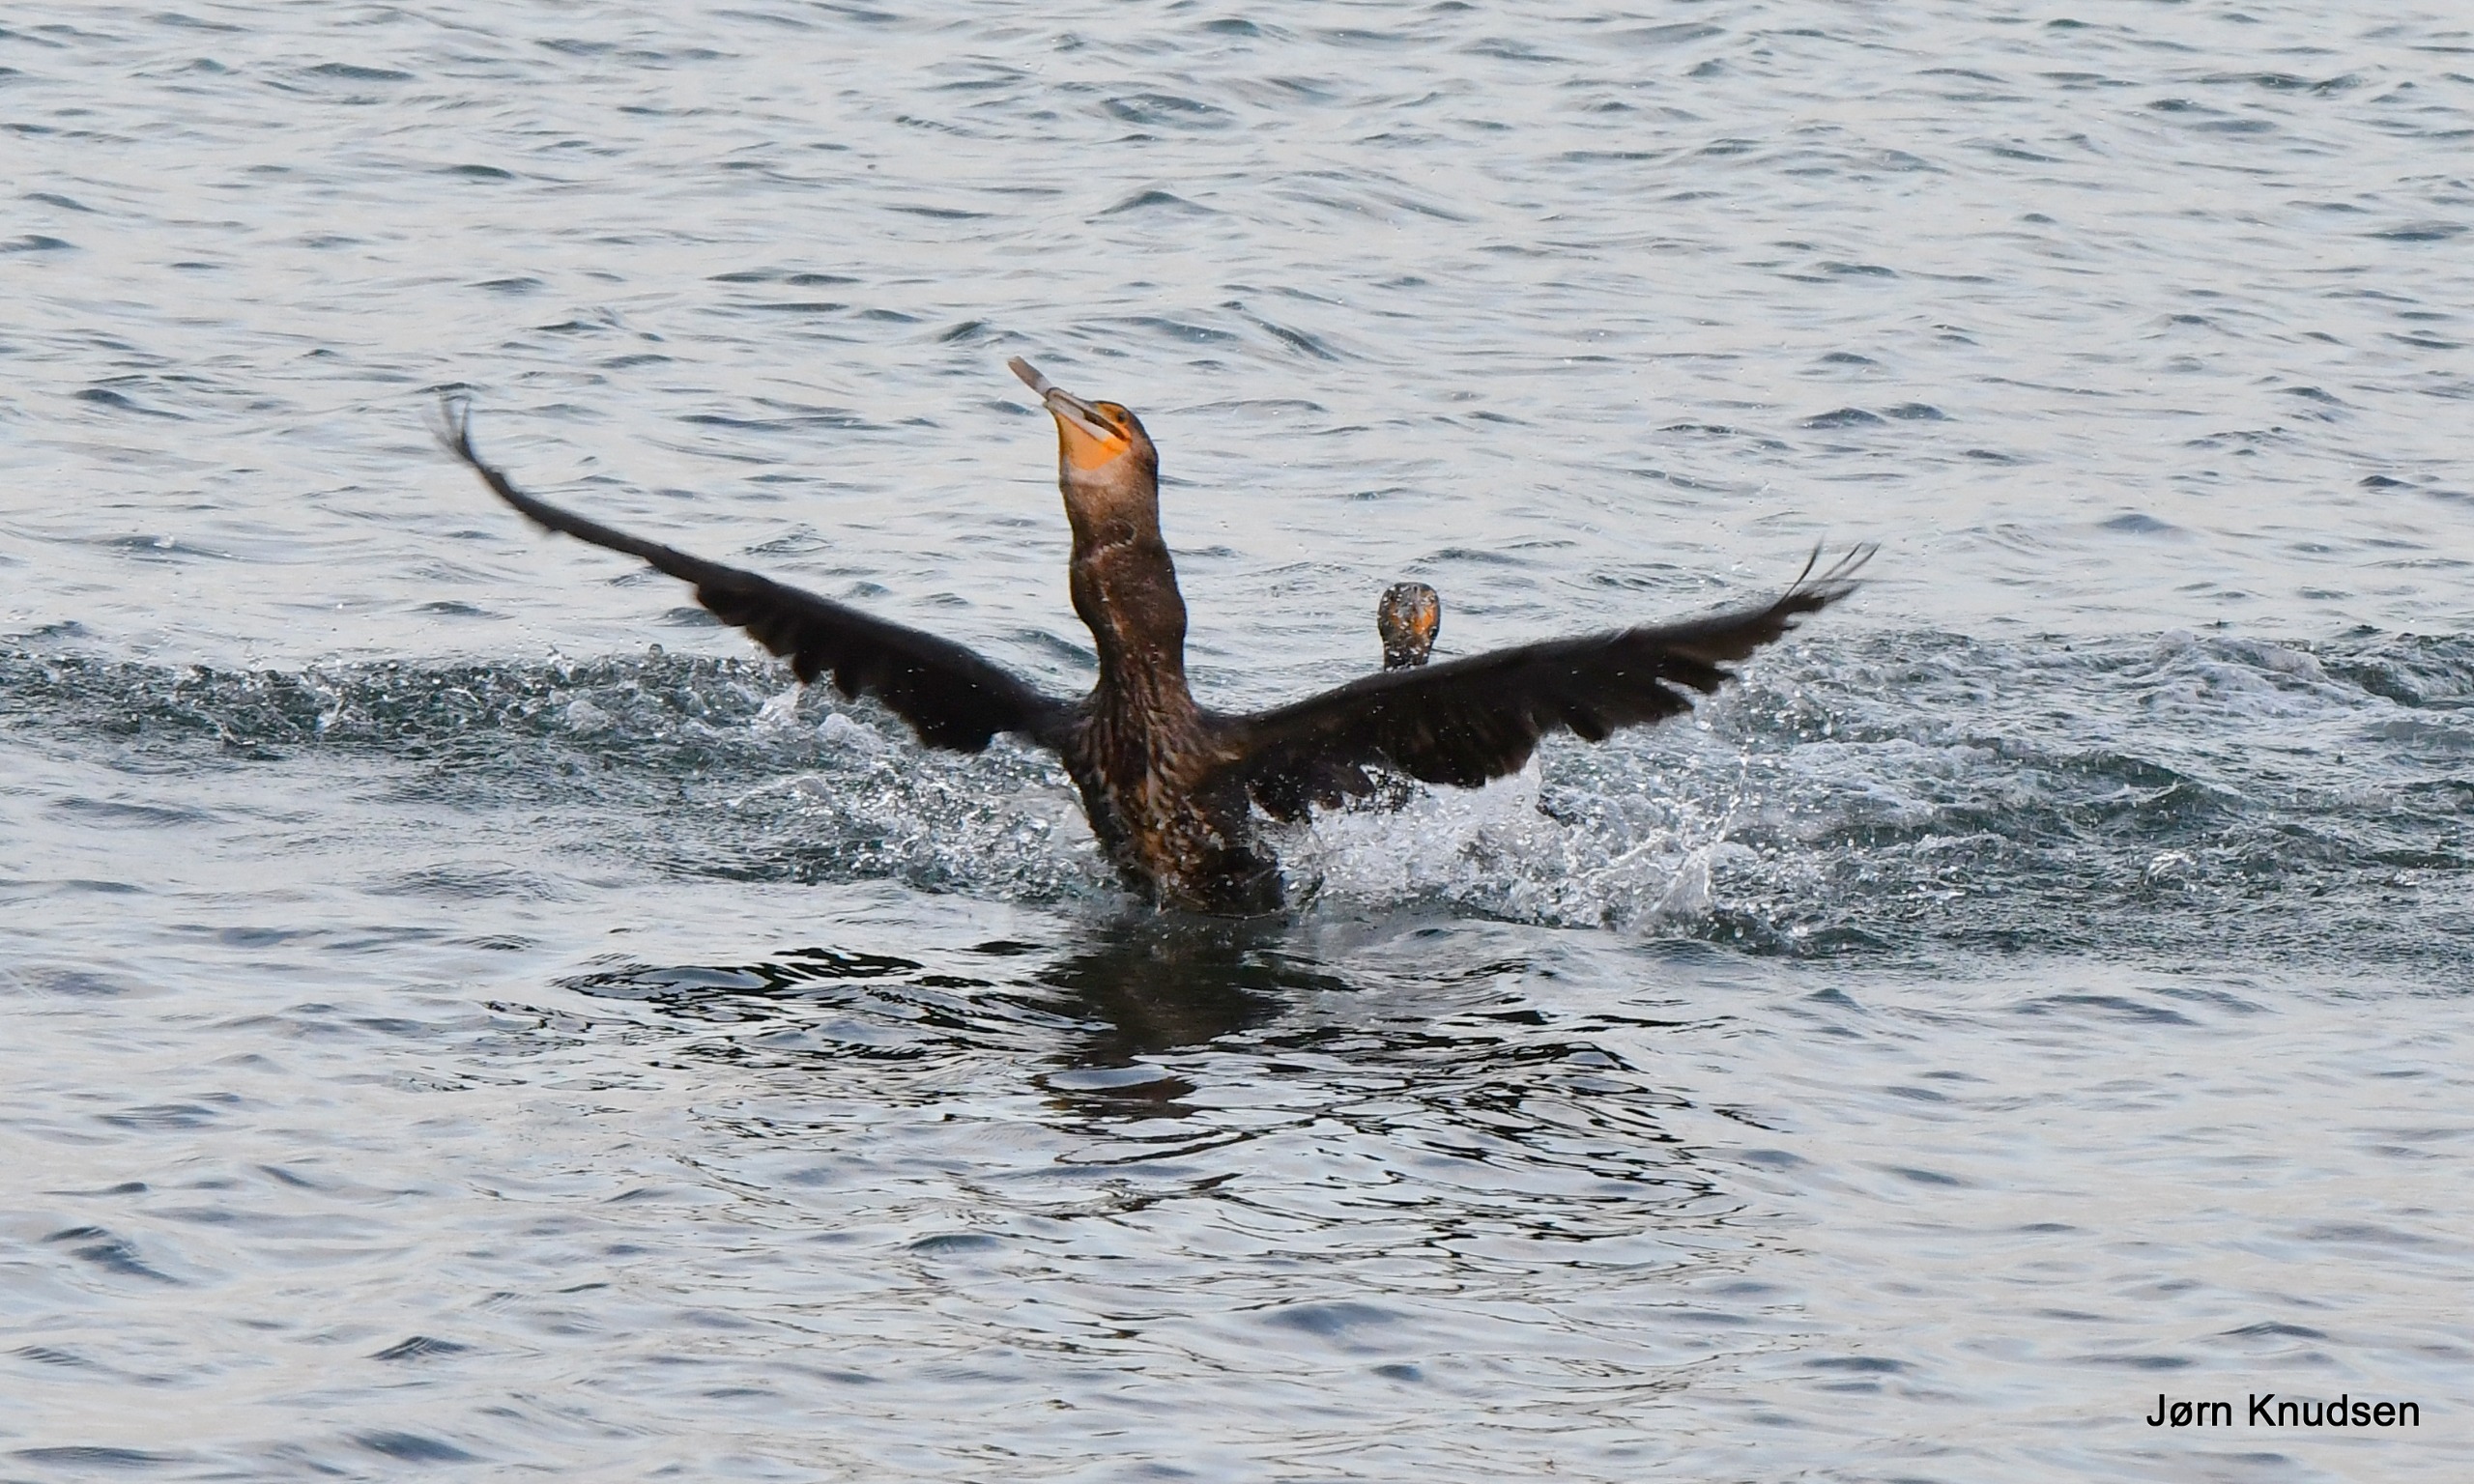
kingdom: Animalia
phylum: Chordata
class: Aves
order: Suliformes
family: Phalacrocoracidae
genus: Phalacrocorax
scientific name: Phalacrocorax carbo
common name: Skarv
